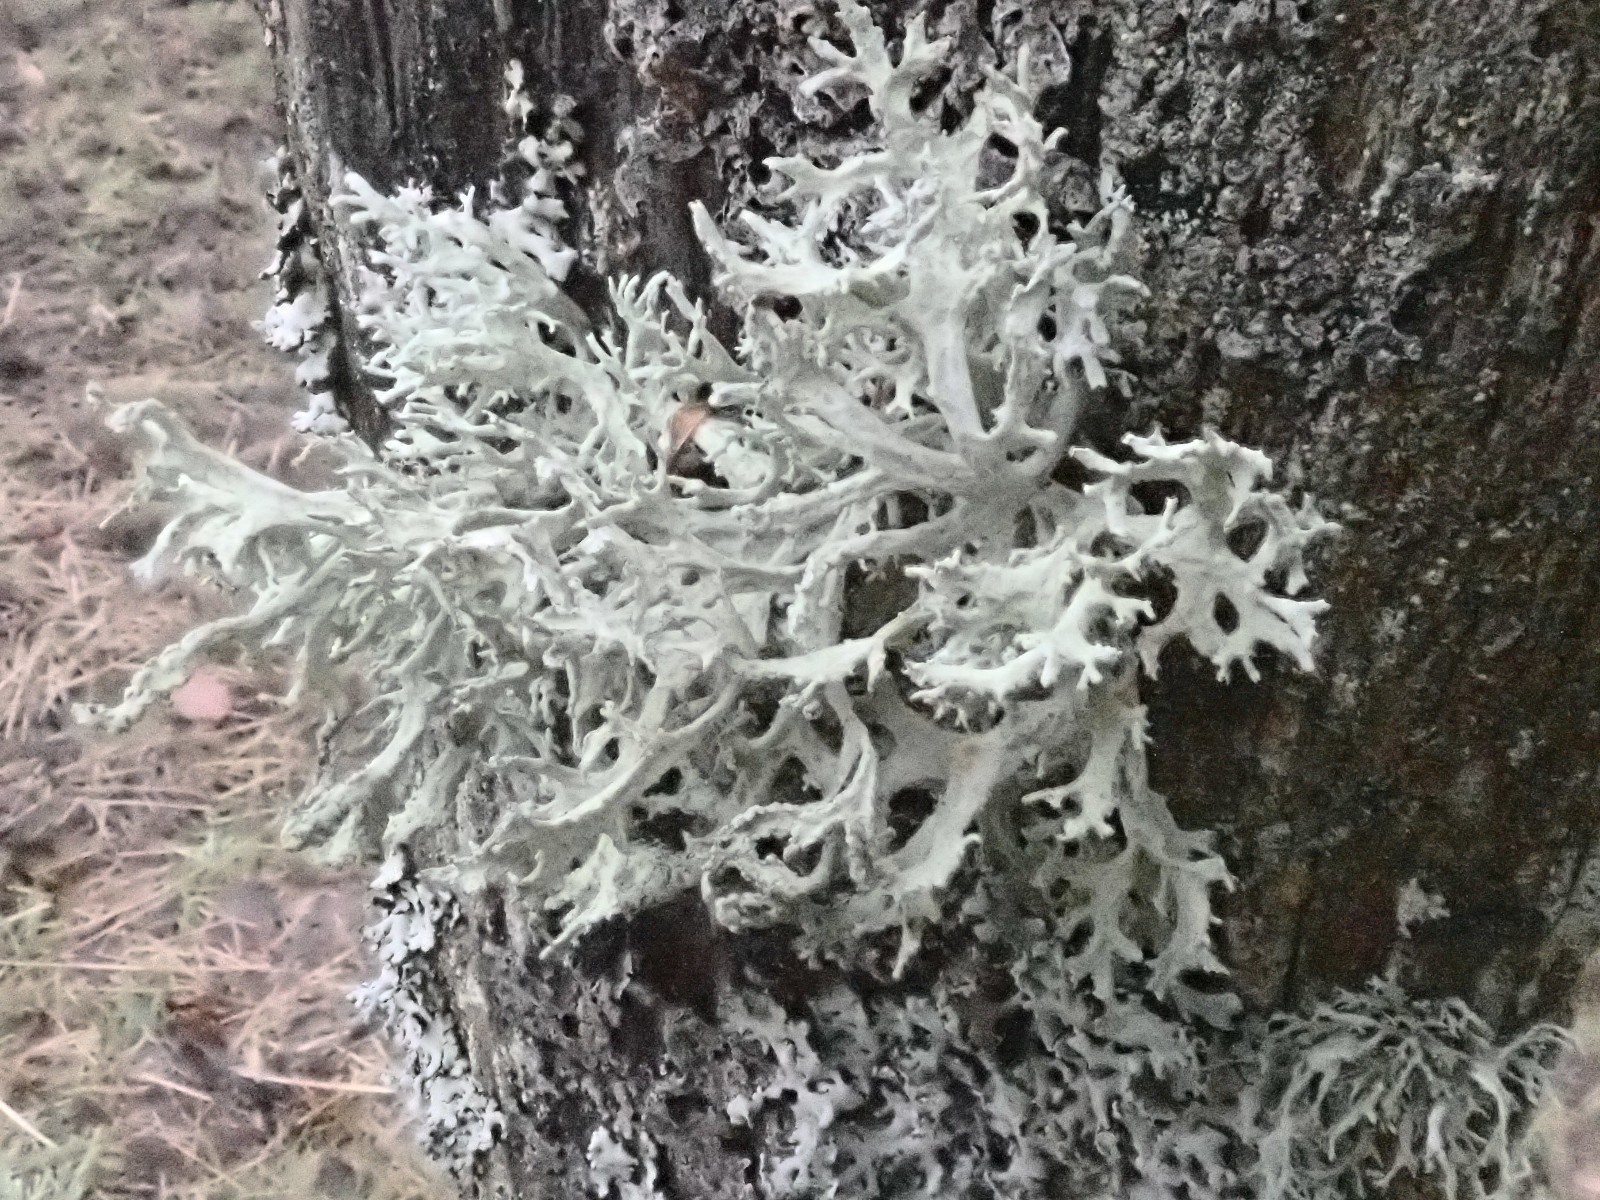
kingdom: Fungi
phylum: Ascomycota
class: Lecanoromycetes
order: Lecanorales
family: Parmeliaceae
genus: Evernia
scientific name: Evernia prunastri
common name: almindelig slåenlav
